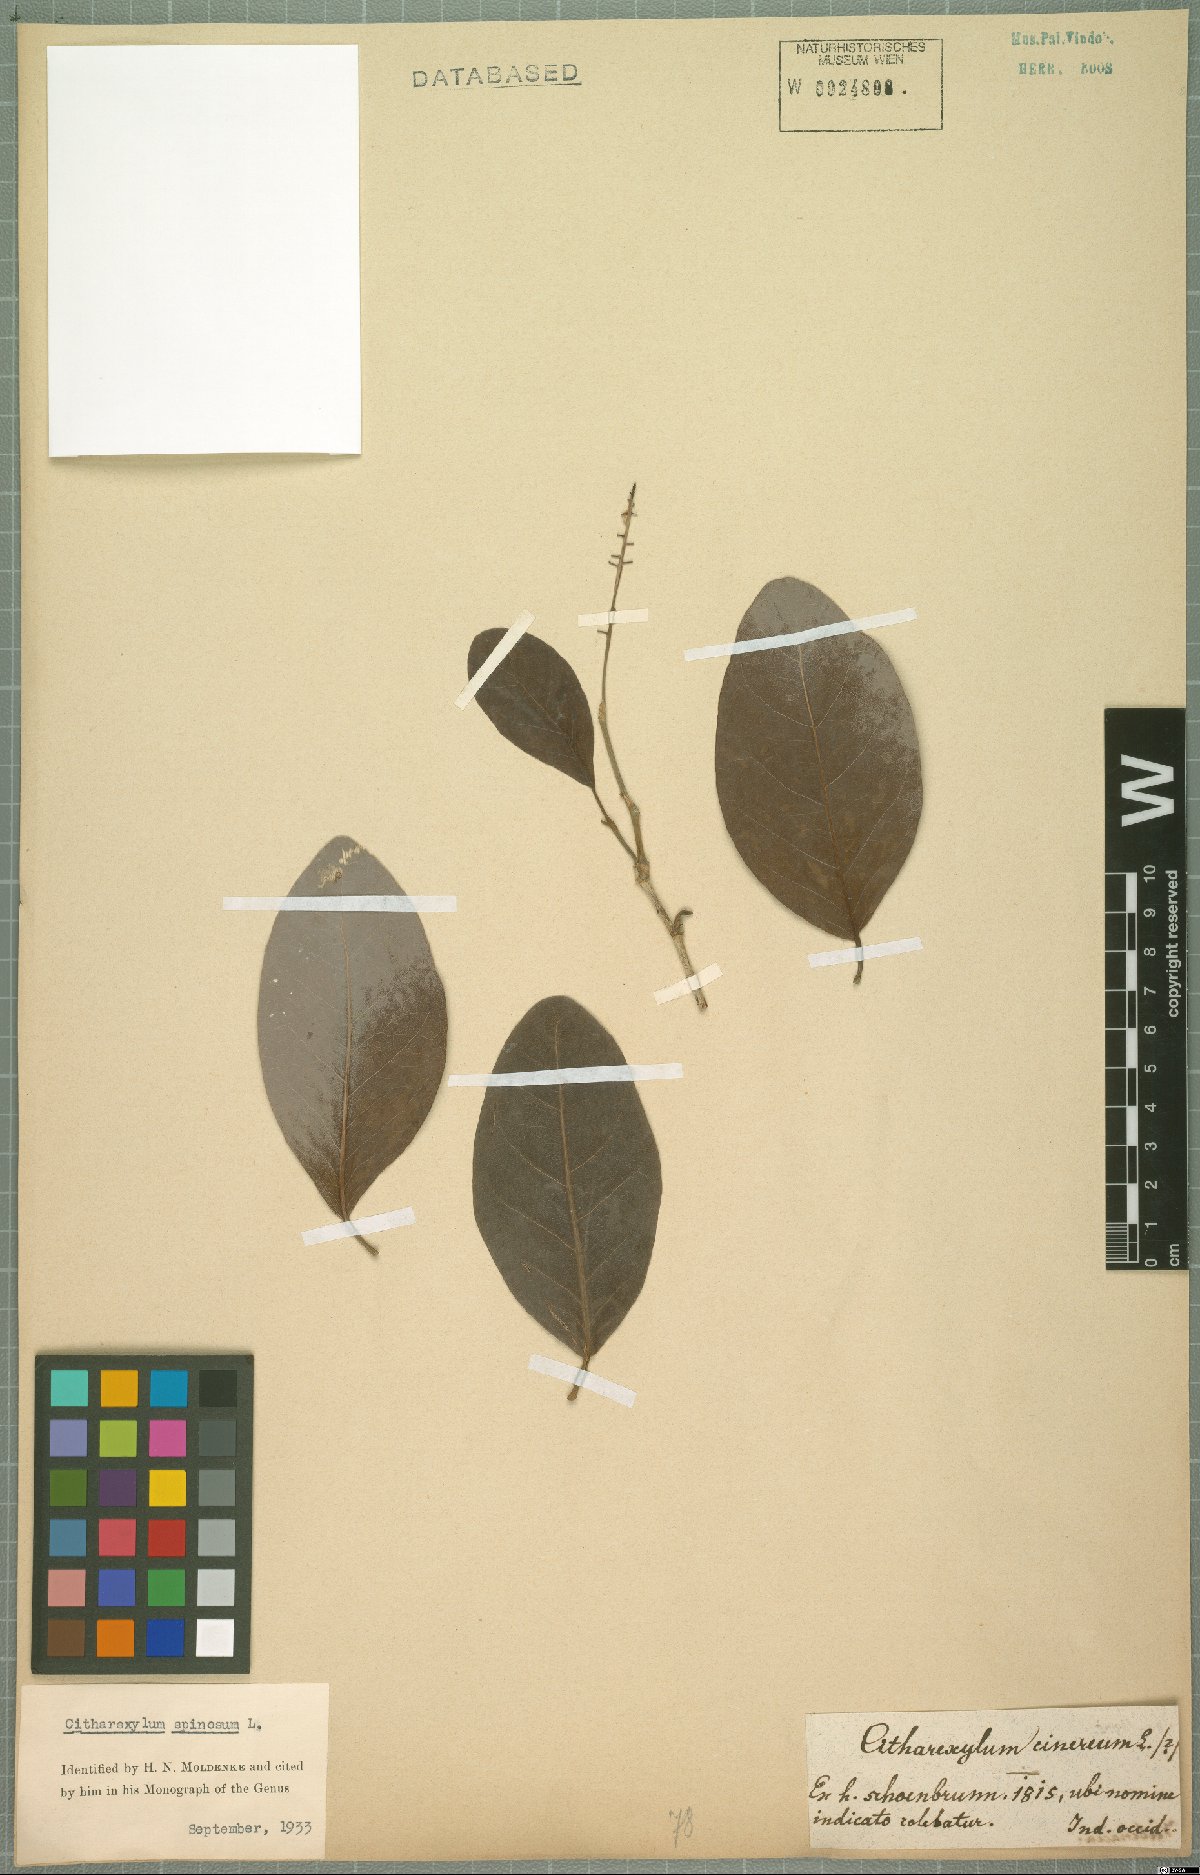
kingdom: Plantae
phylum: Tracheophyta
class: Magnoliopsida
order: Lamiales
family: Verbenaceae
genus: Citharexylum
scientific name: Citharexylum spinosum
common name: Fiddlewood
